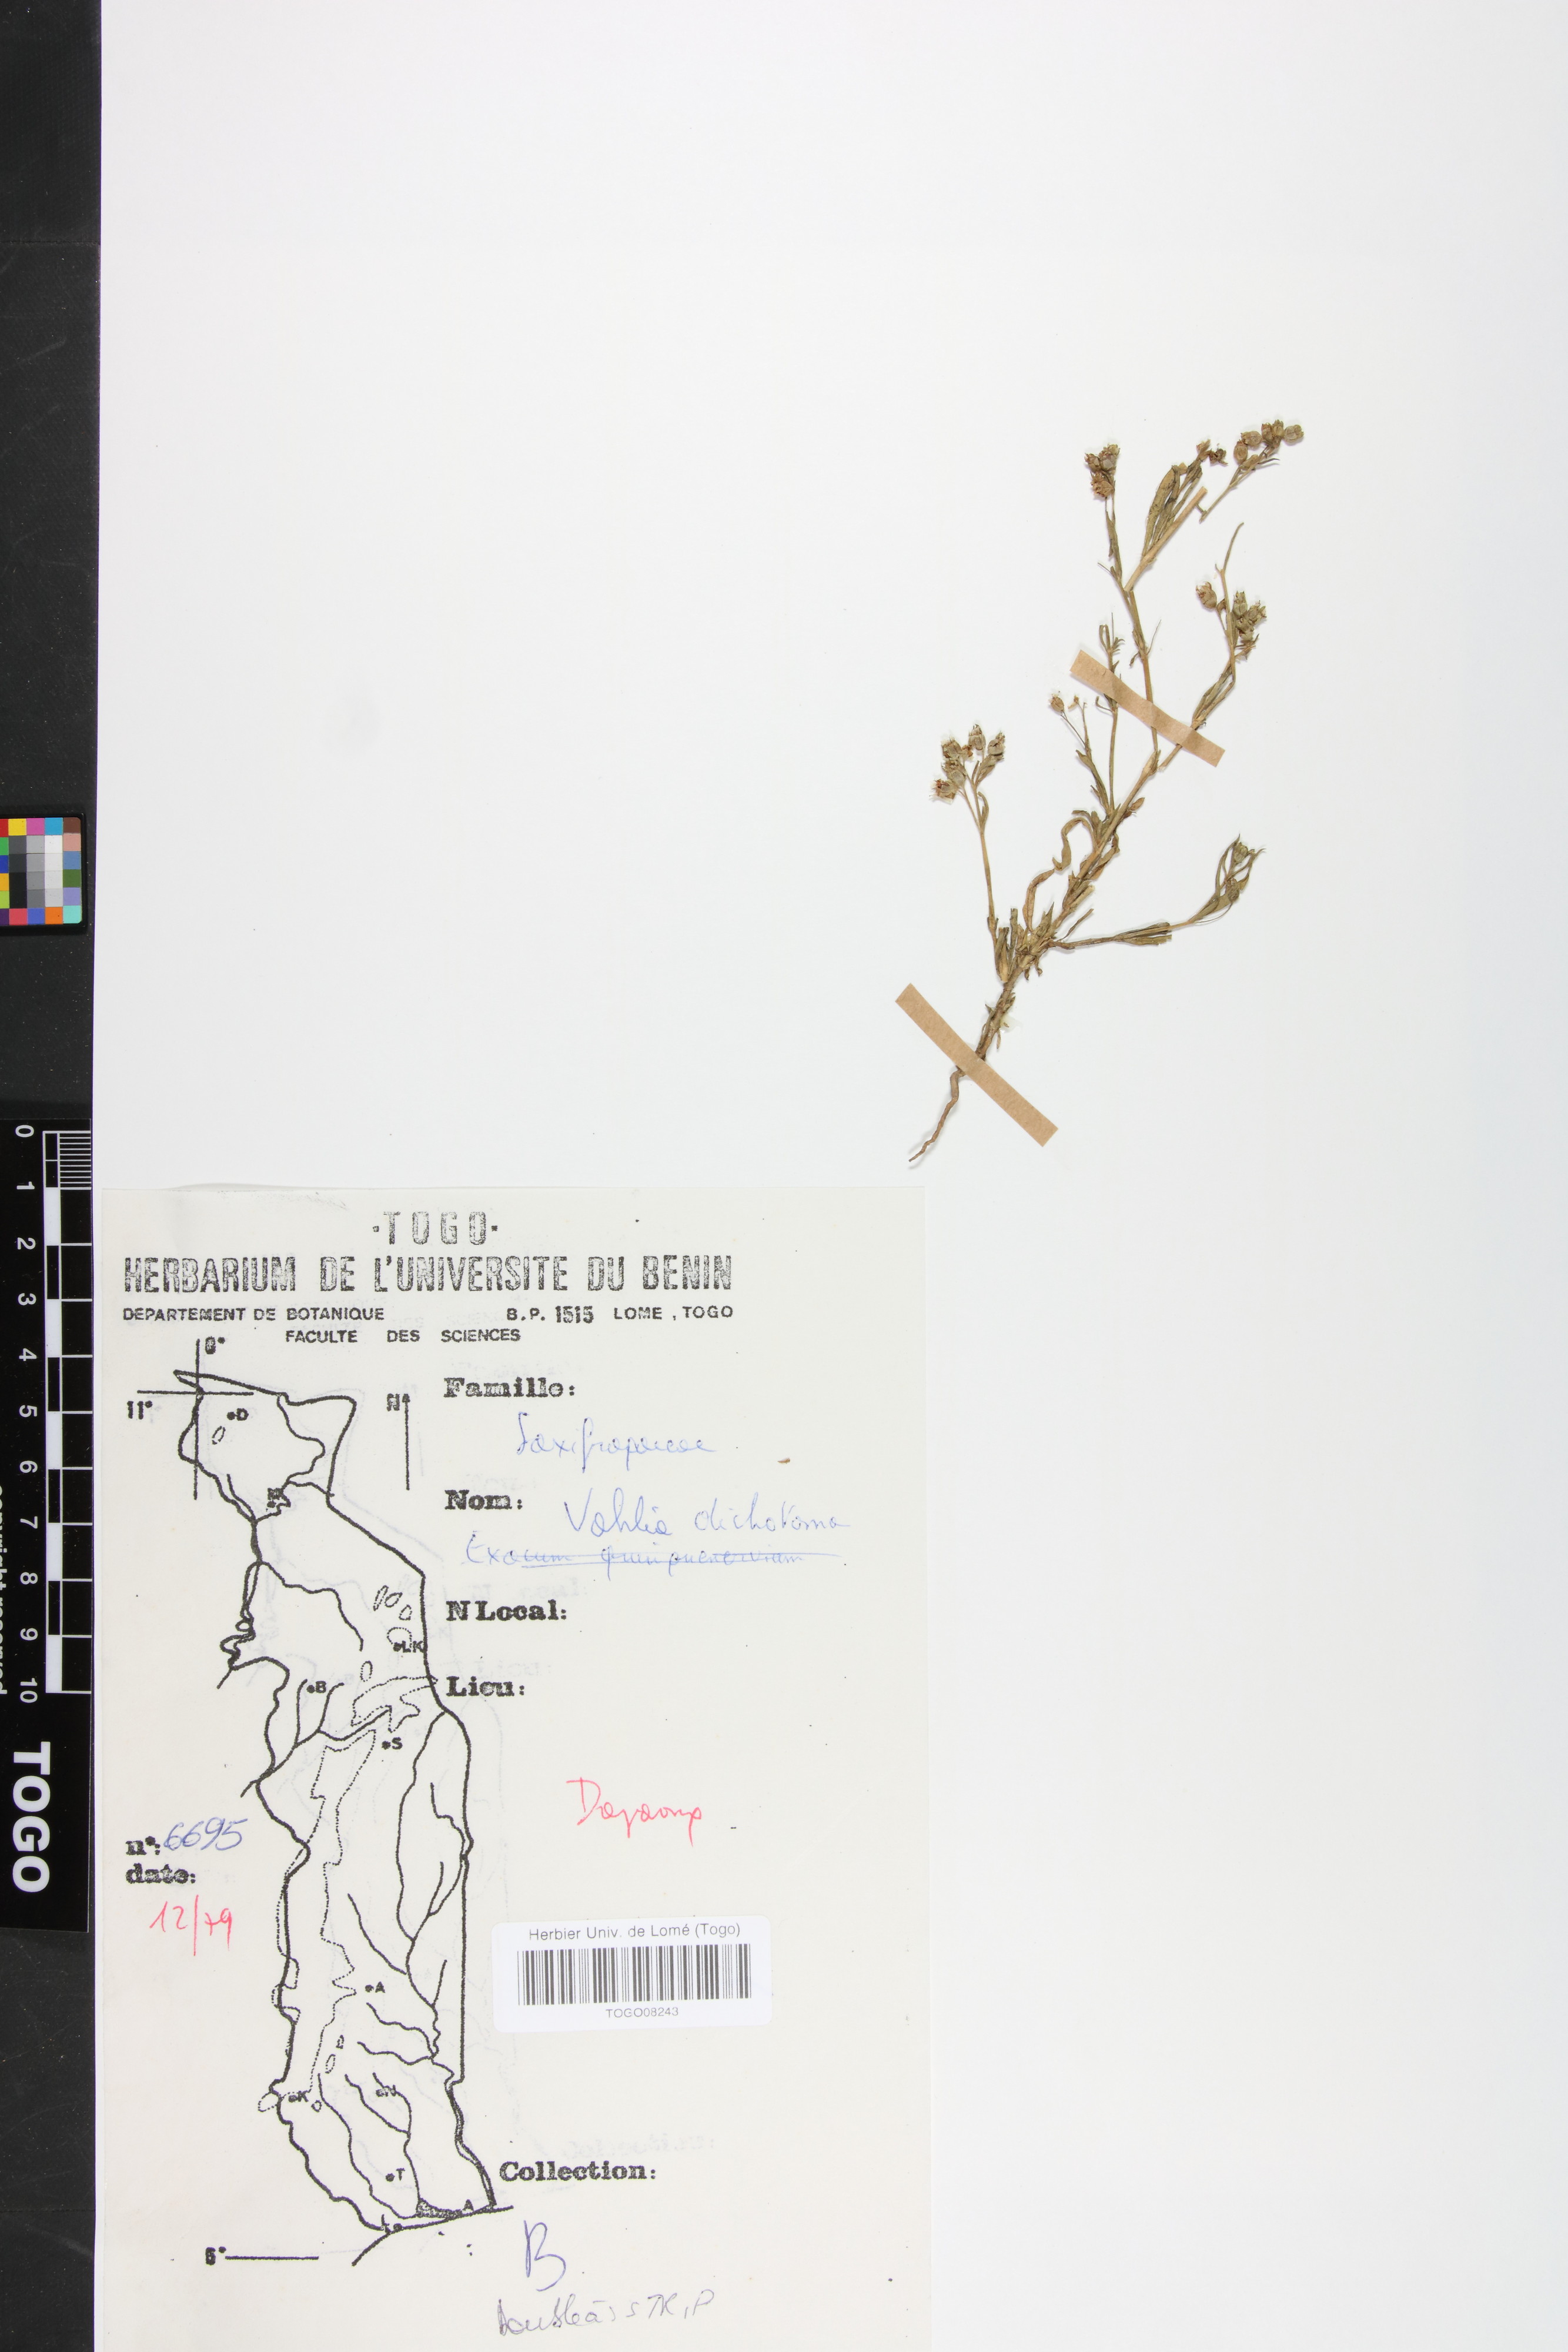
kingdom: Plantae
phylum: Tracheophyta
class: Magnoliopsida
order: Vahliales
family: Vahliaceae
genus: Vahlia
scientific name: Vahlia dichotoma
